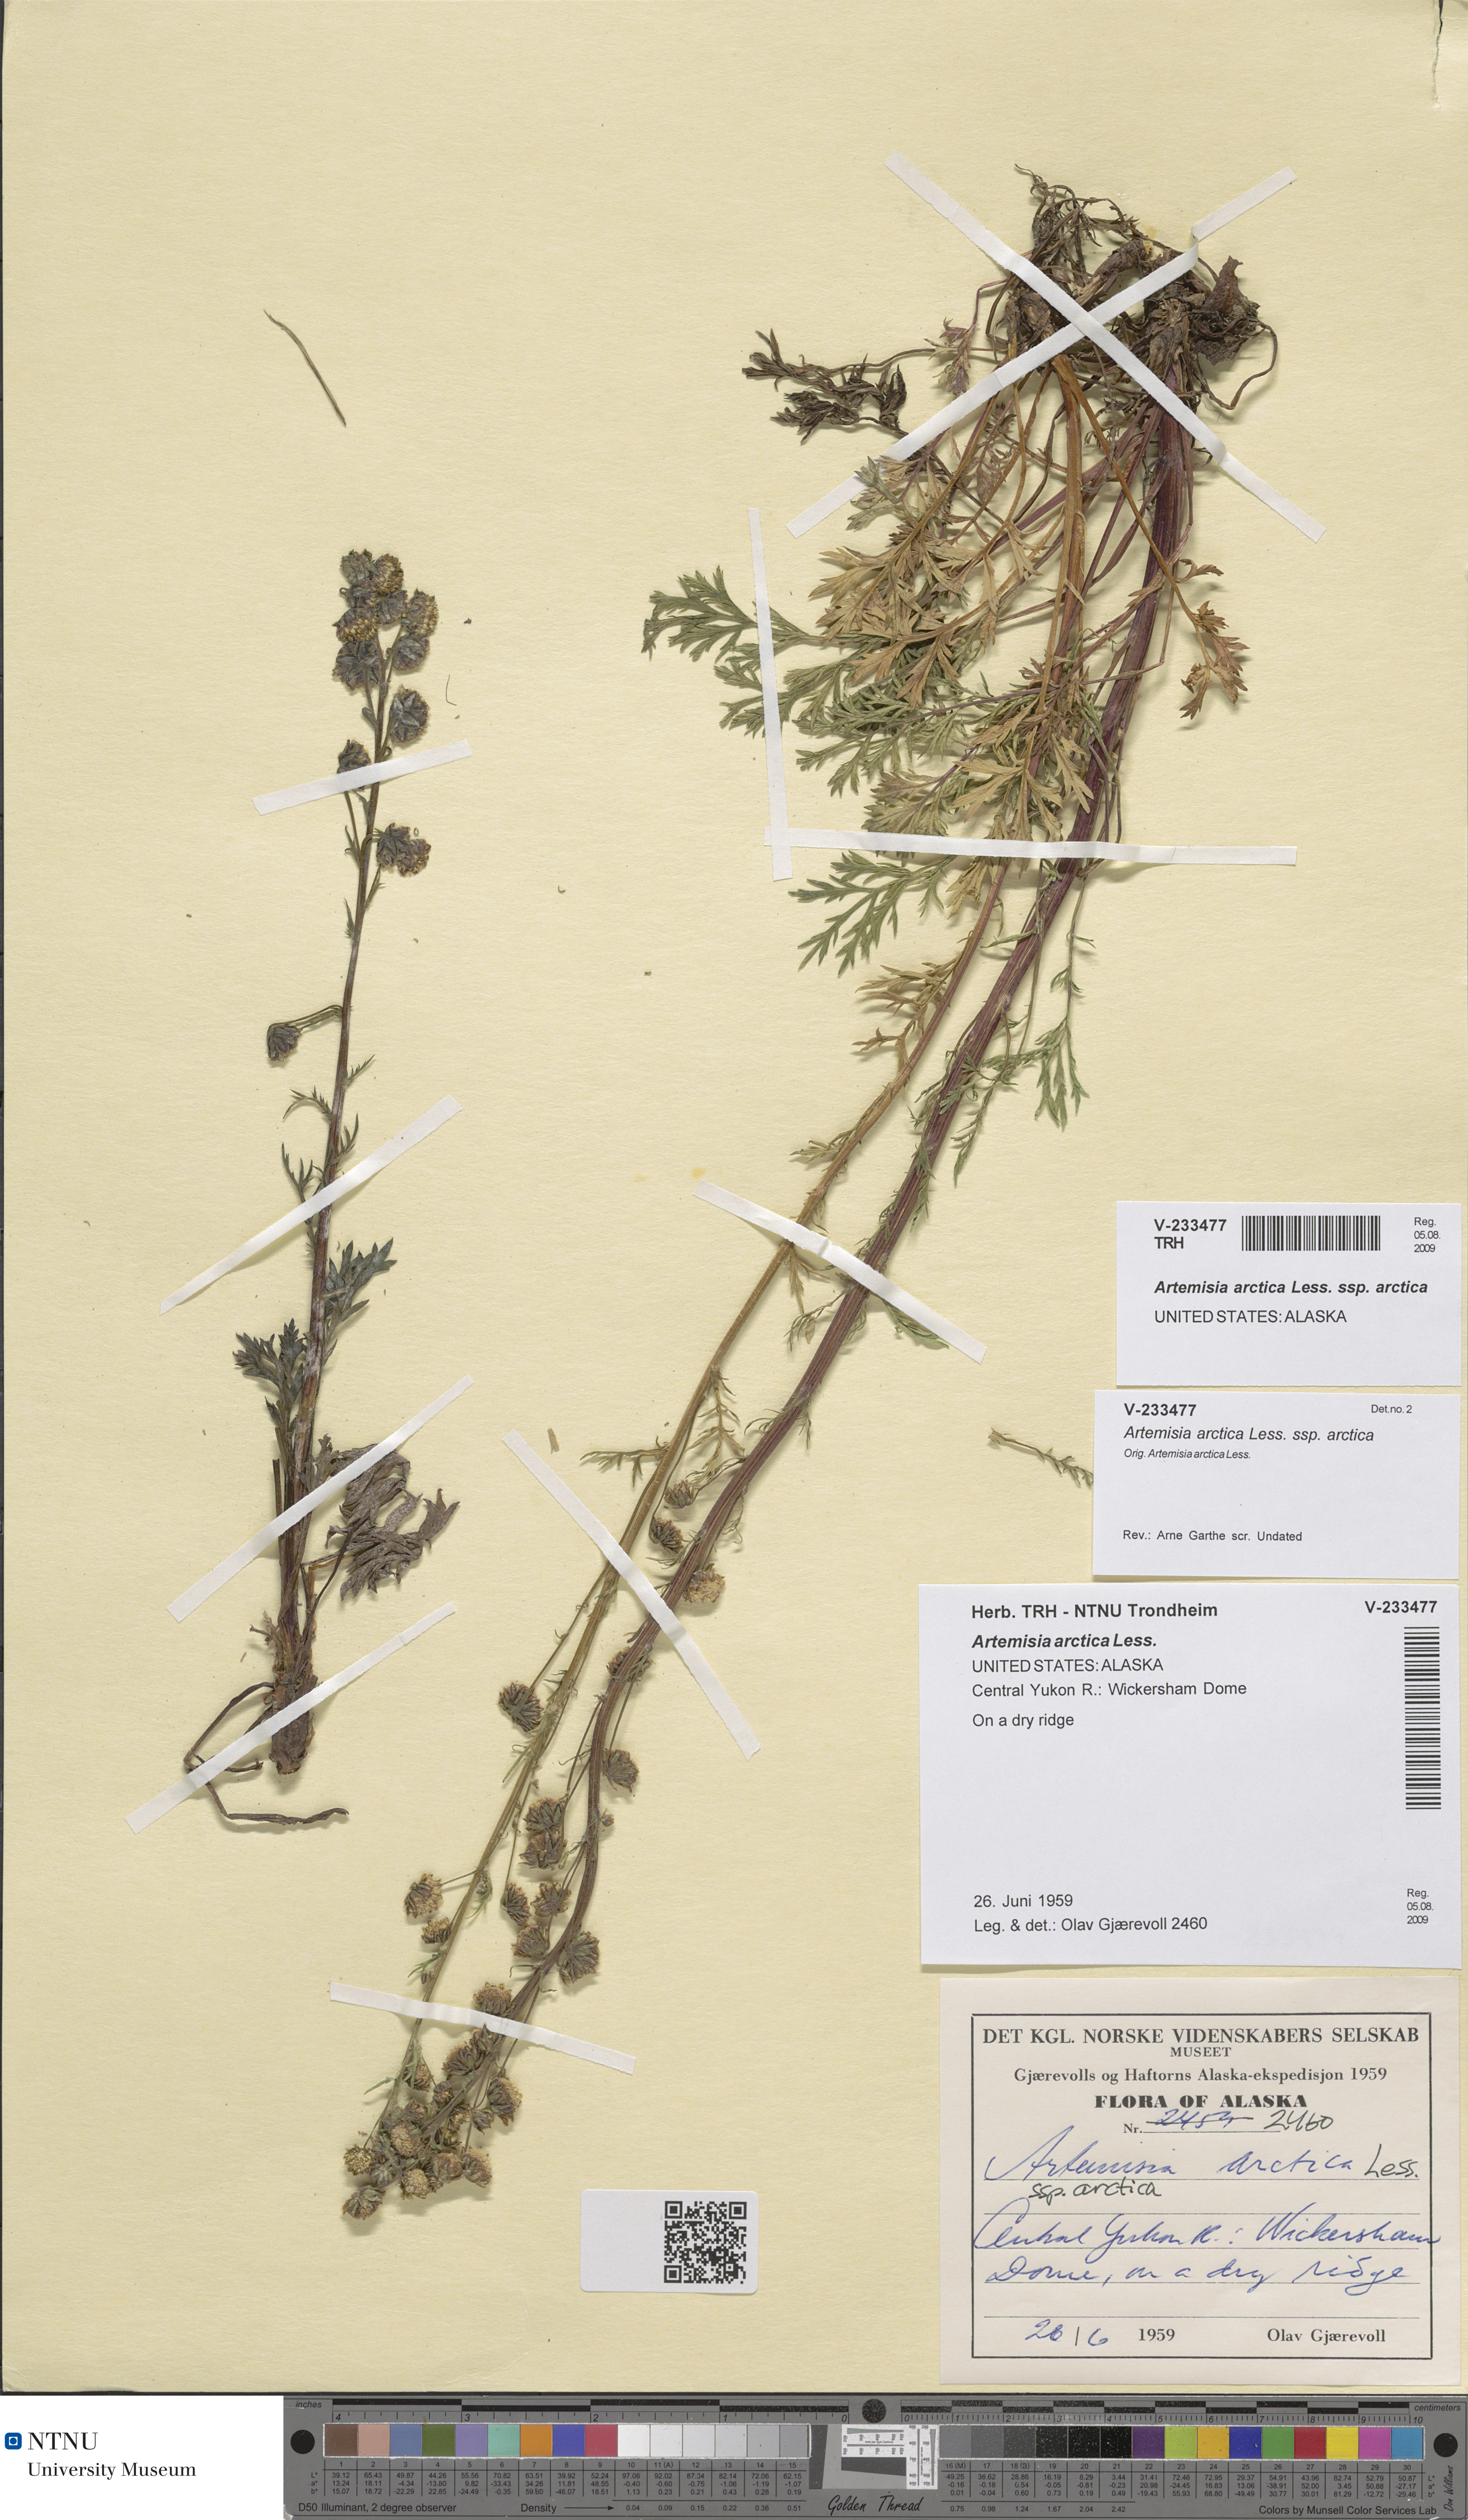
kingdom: Plantae
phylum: Tracheophyta
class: Magnoliopsida
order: Asterales
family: Asteraceae
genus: Artemisia
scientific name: Artemisia
